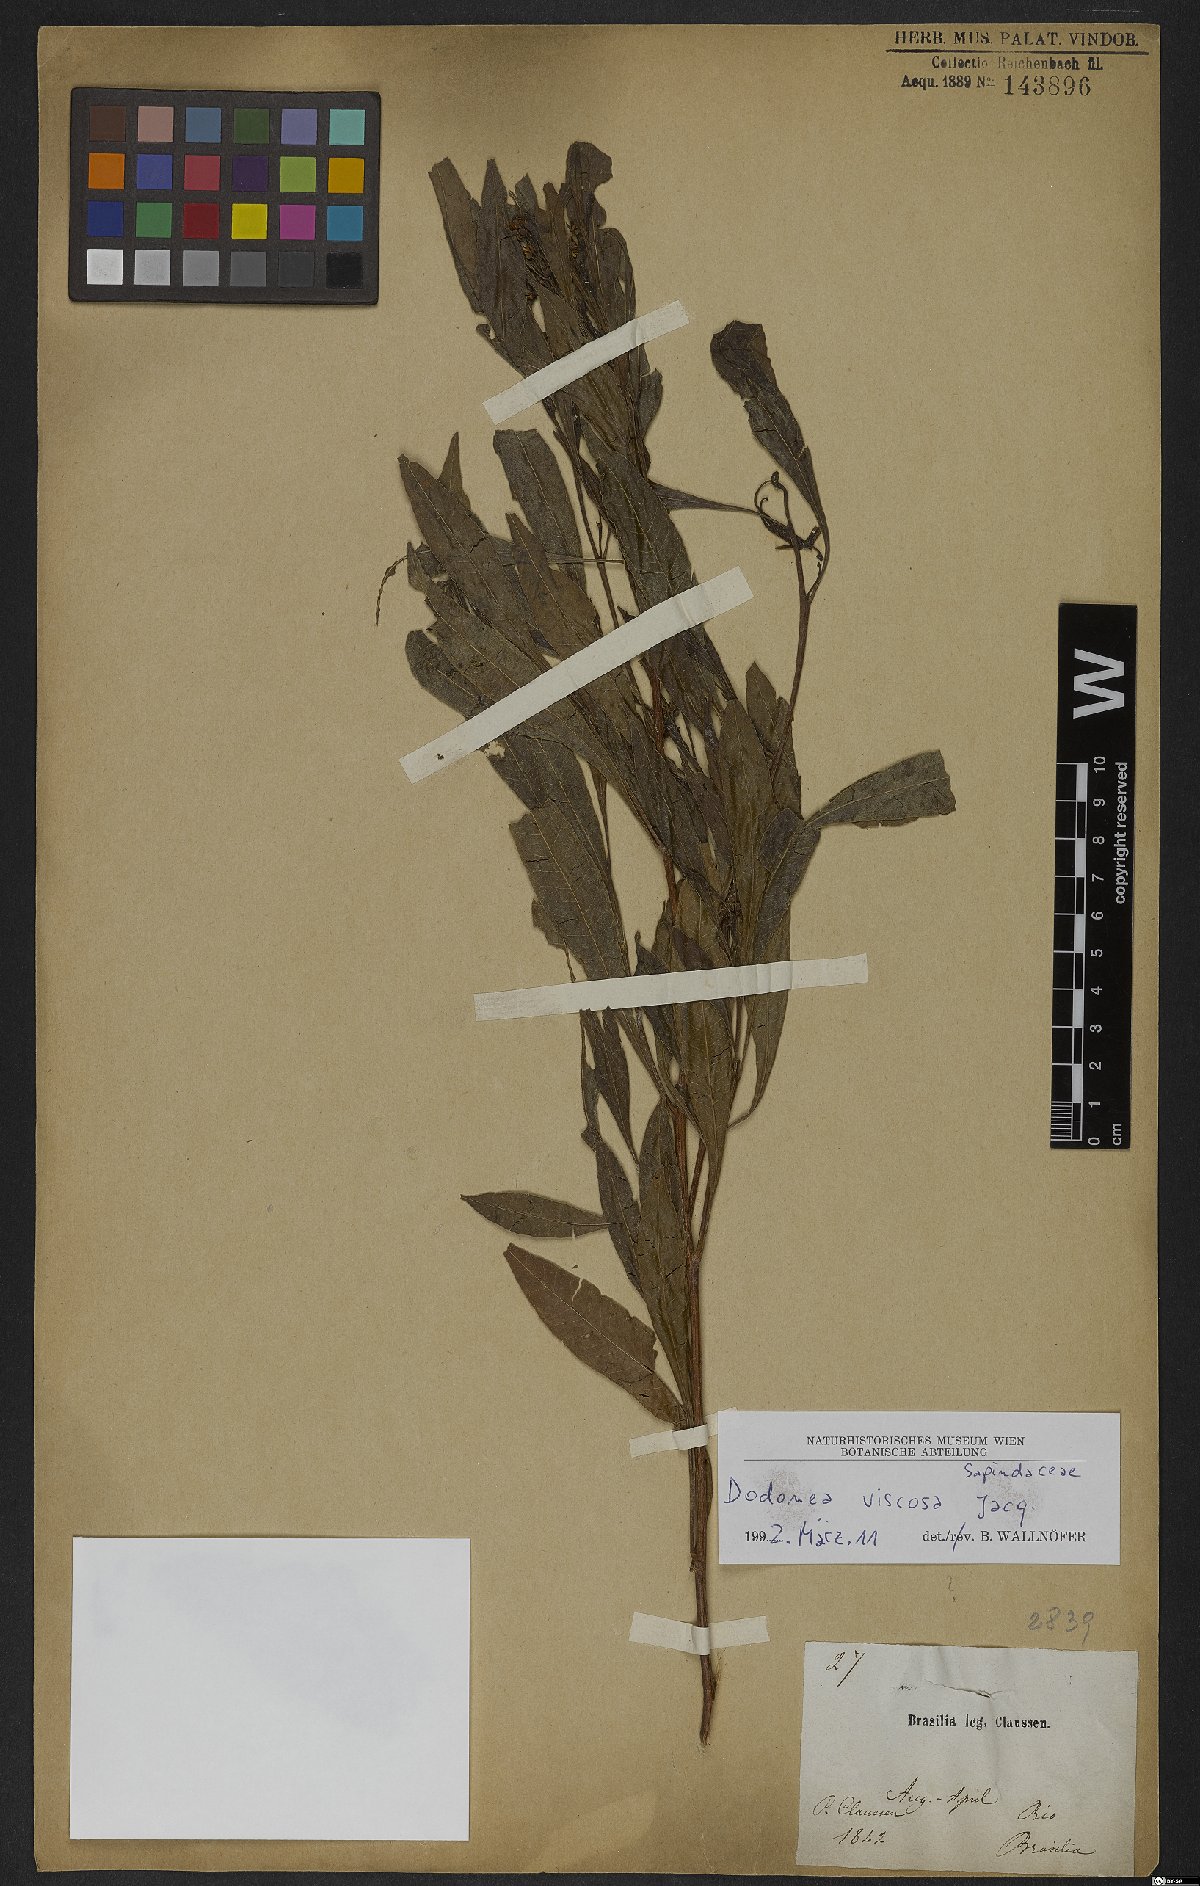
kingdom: Plantae
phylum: Tracheophyta
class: Magnoliopsida
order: Sapindales
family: Sapindaceae
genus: Dodonaea
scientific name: Dodonaea viscosa
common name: Hopbush
